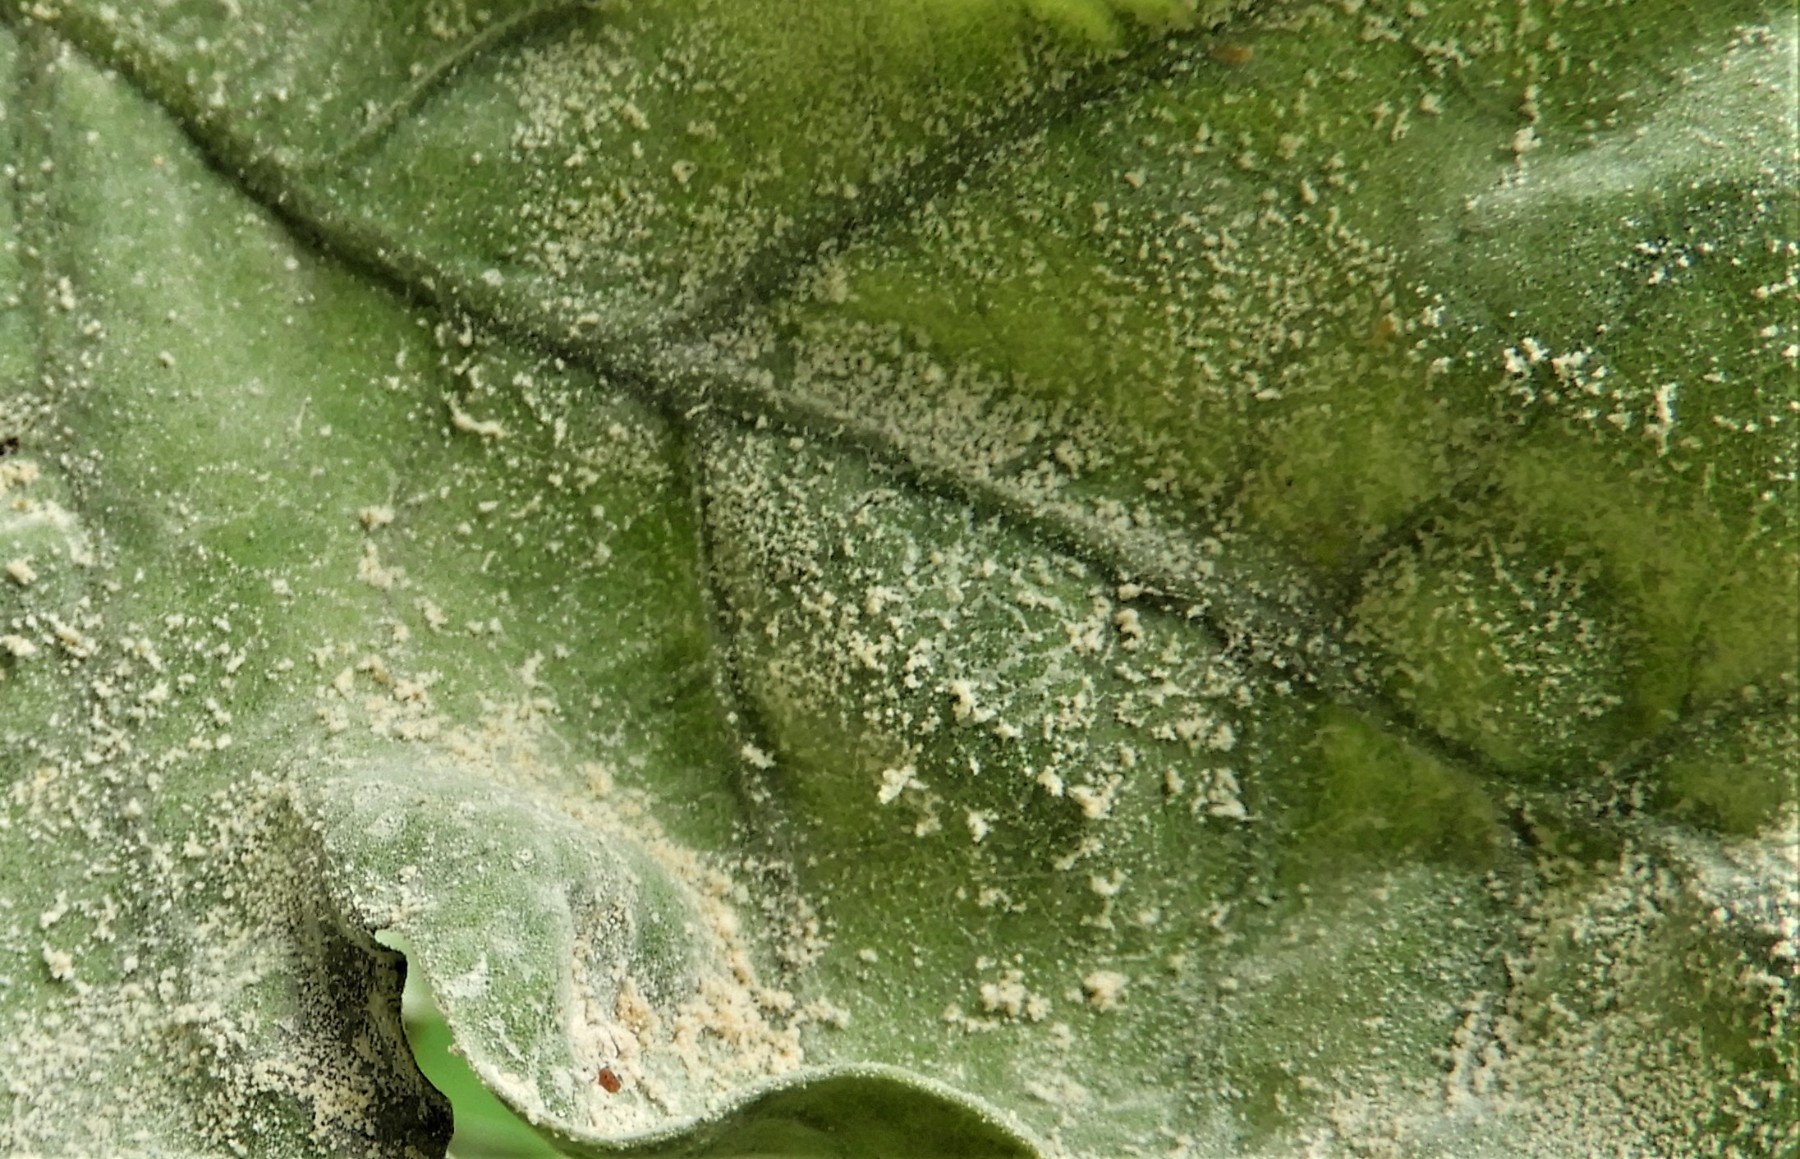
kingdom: Fungi
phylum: Ascomycota
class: Leotiomycetes
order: Helotiales
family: Erysiphaceae
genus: Erysiphe
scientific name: Erysiphe alphitoides
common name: ege-meldug
